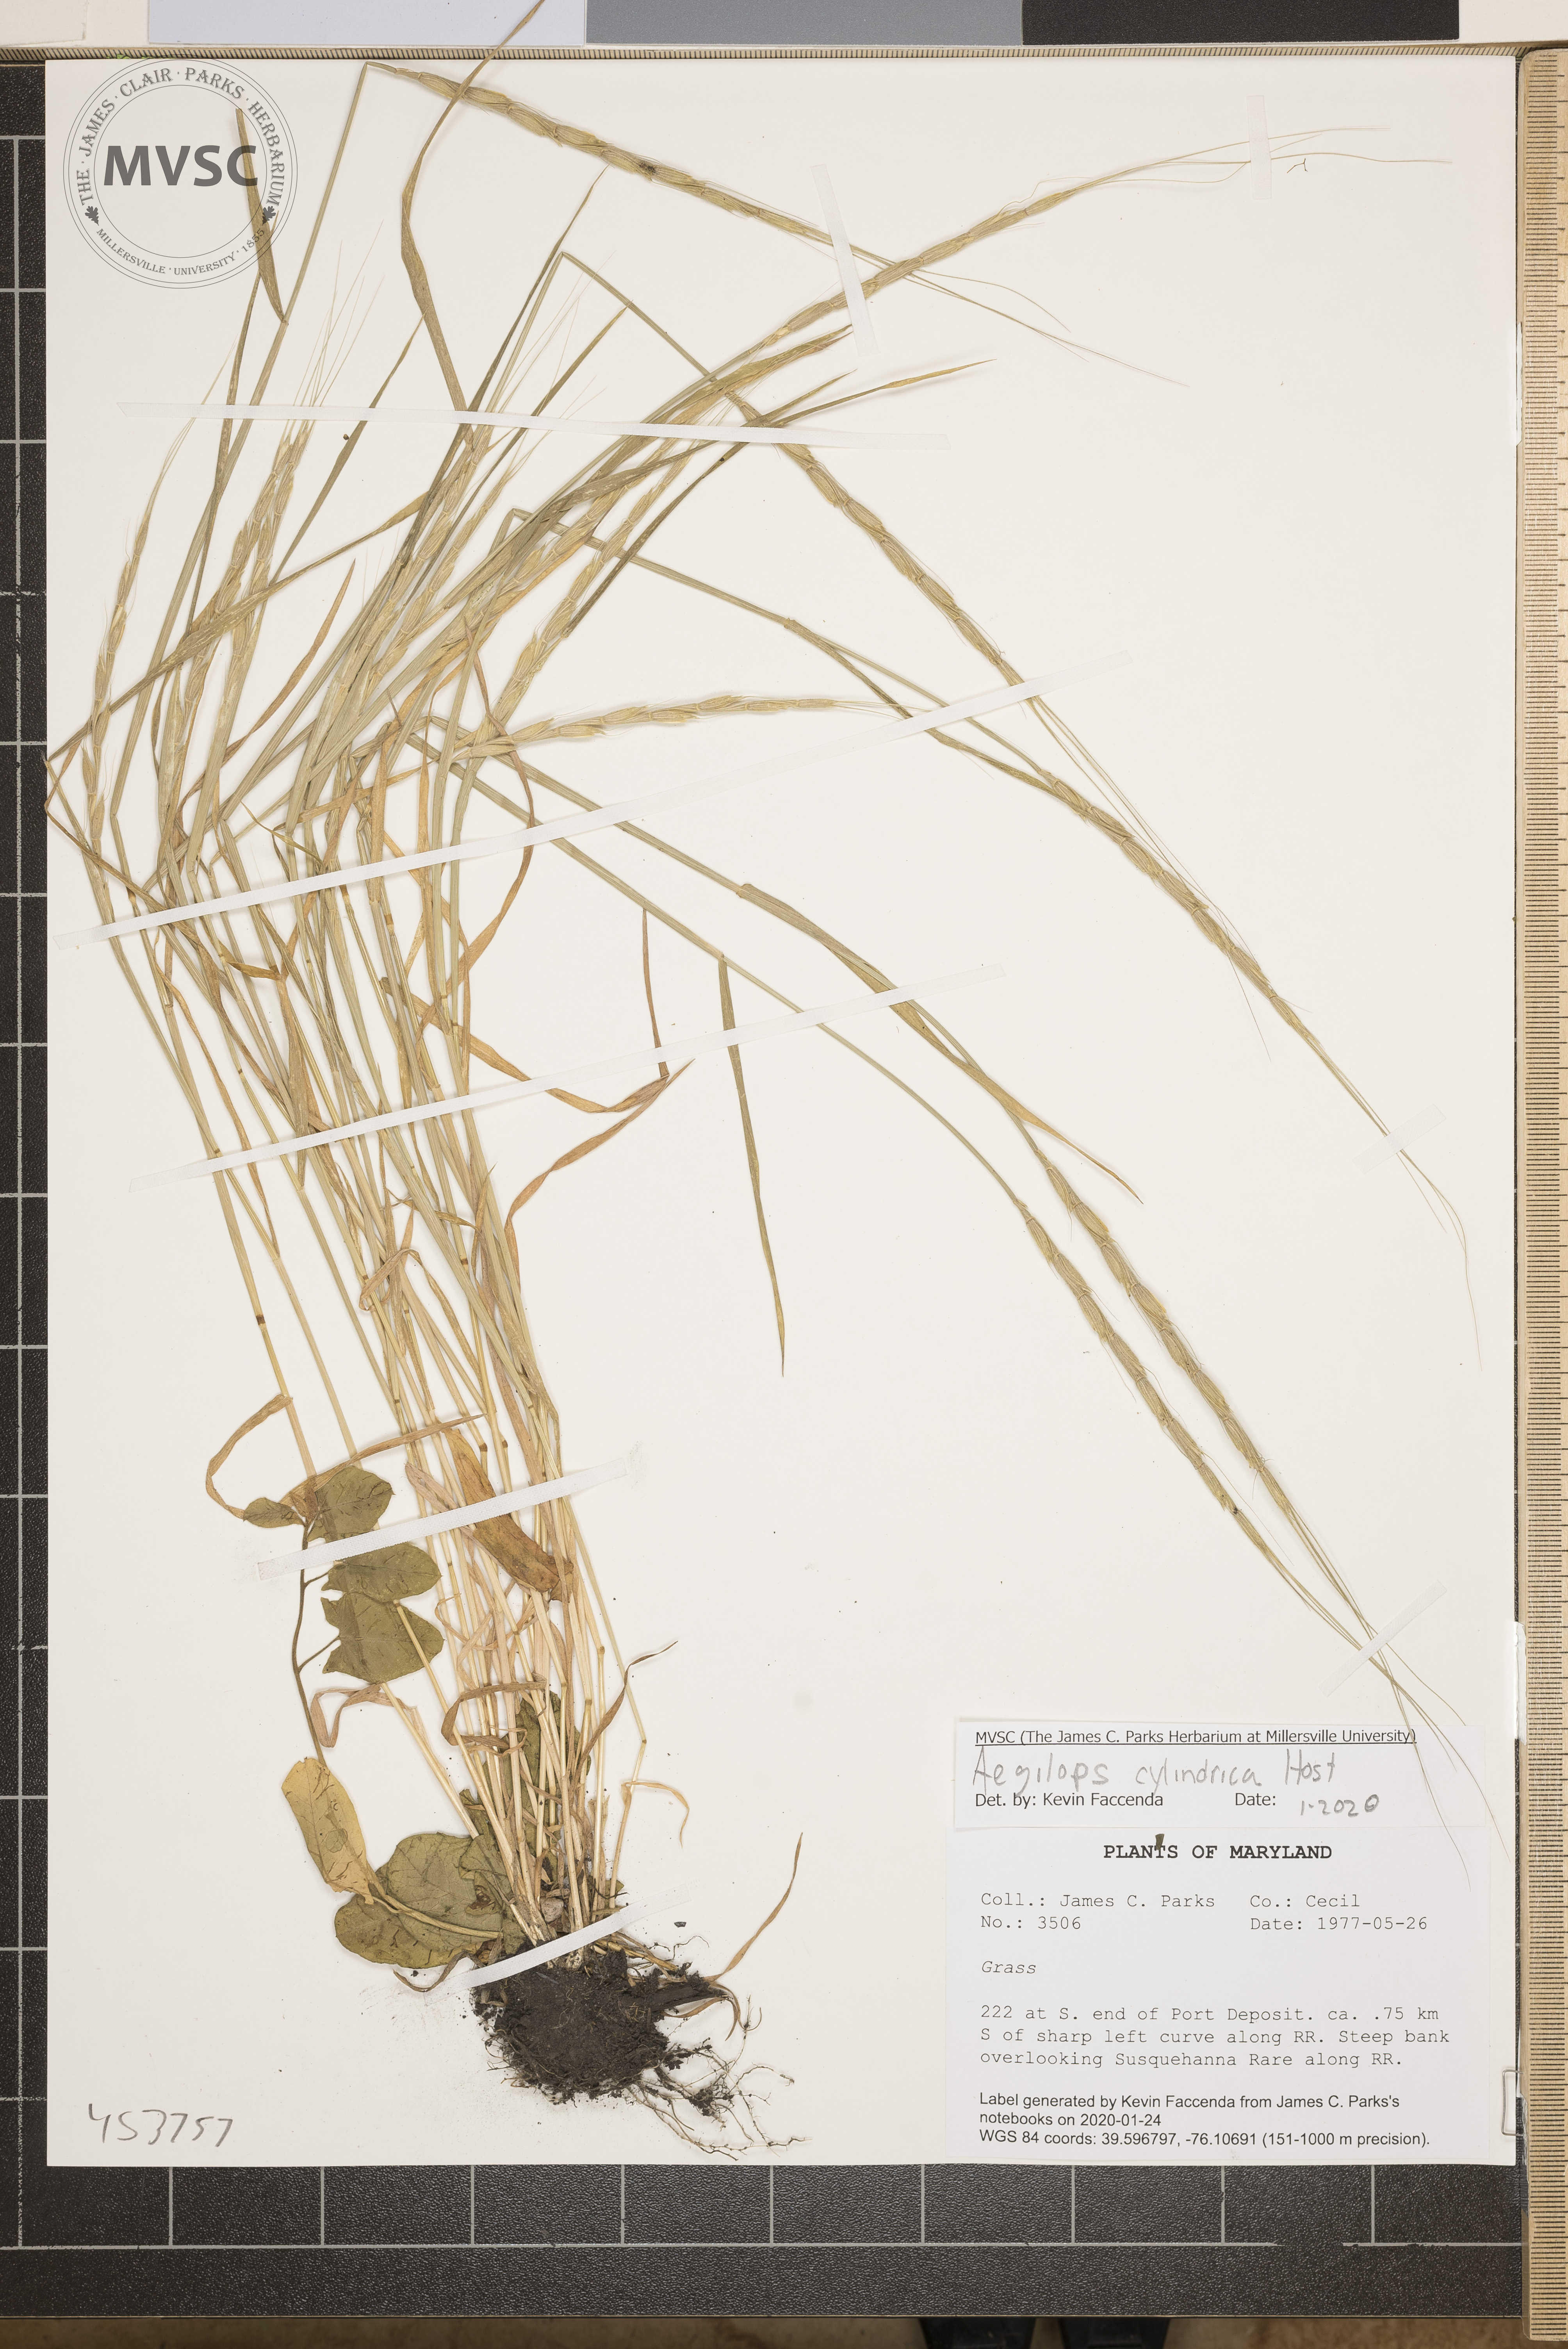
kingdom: Plantae
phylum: Tracheophyta
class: Liliopsida
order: Poales
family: Poaceae
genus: Aegilops
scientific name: Aegilops cylindrica
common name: Jointed goatgrass
